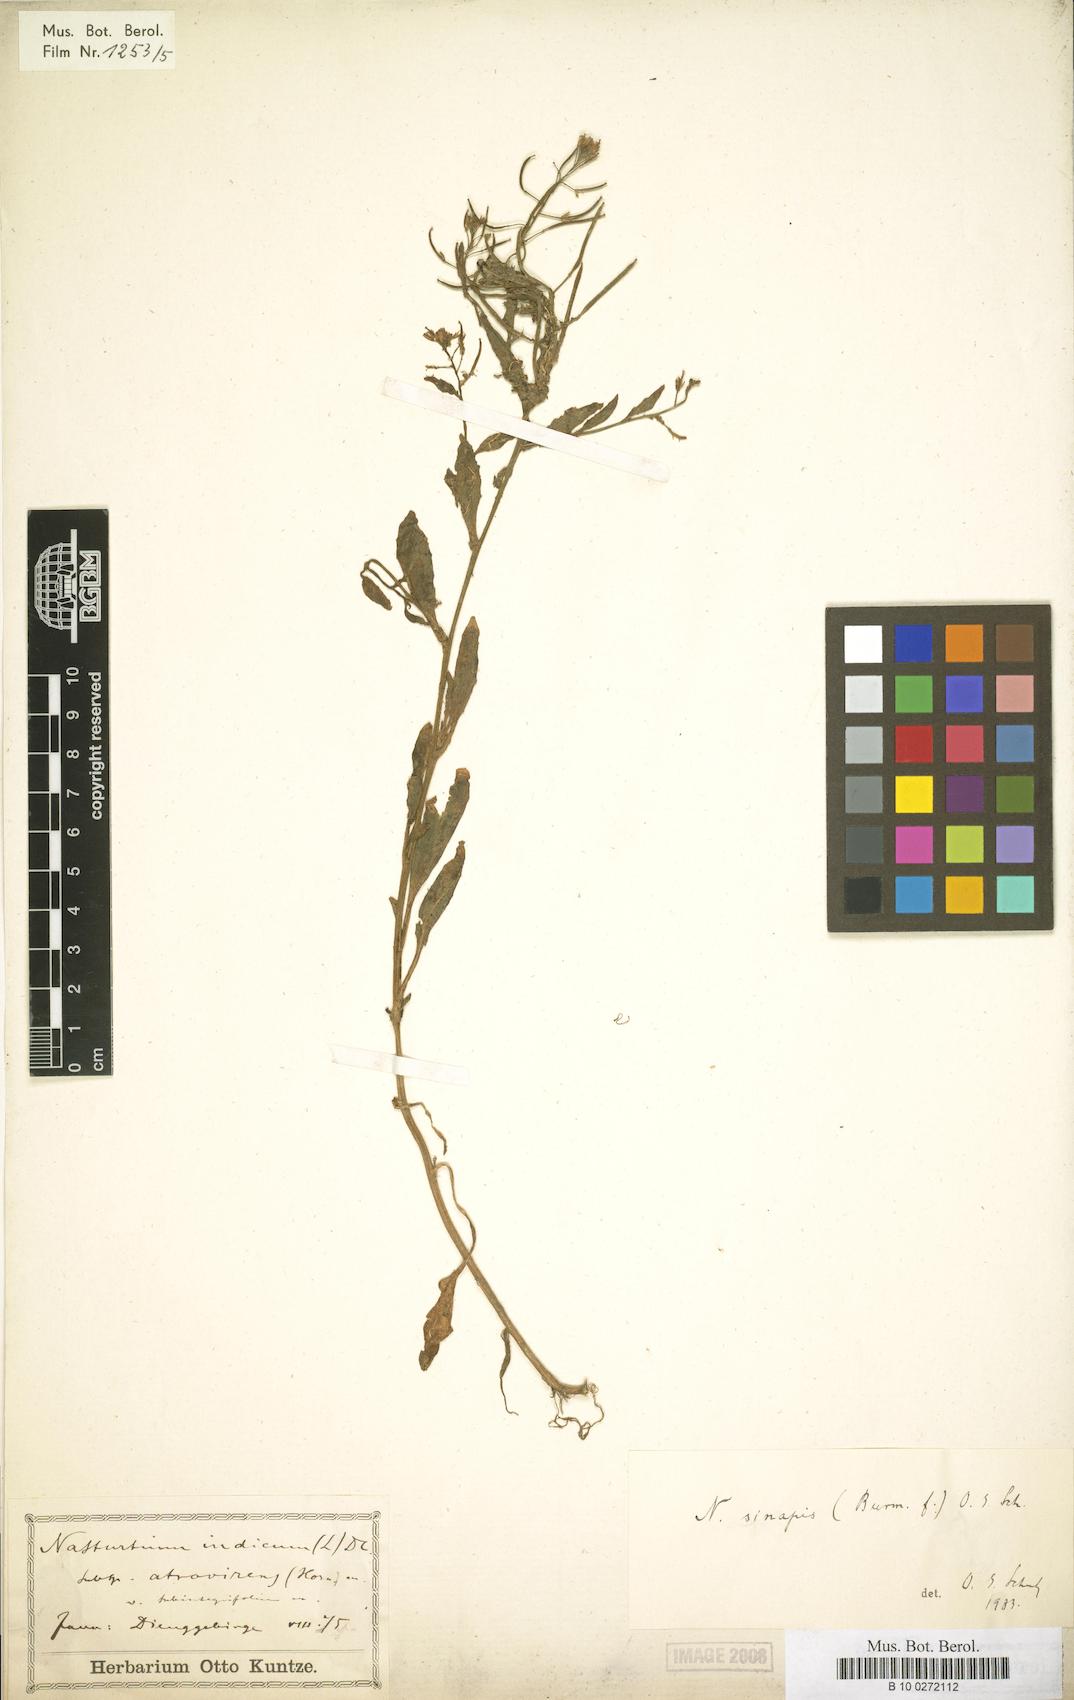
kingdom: Plantae
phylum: Tracheophyta
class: Magnoliopsida
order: Brassicales
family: Brassicaceae
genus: Rorippa
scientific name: Rorippa indica
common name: Variableleaf yellowcress
